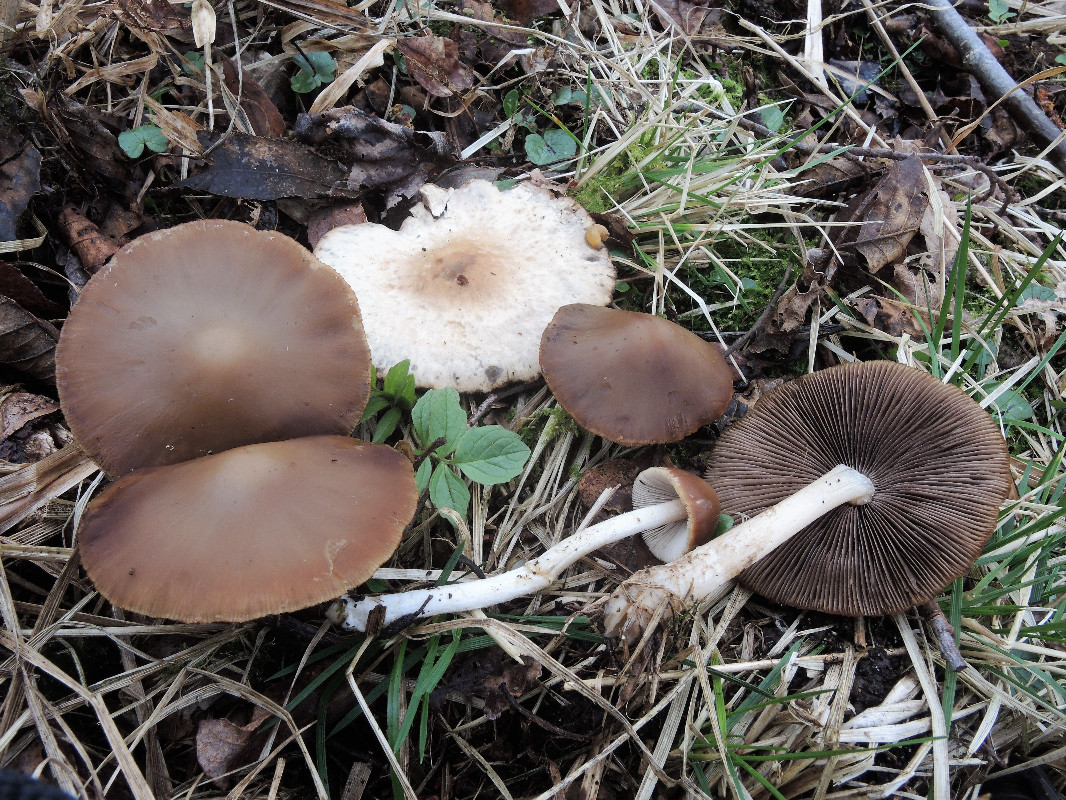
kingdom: Fungi
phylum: Basidiomycota
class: Agaricomycetes
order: Agaricales
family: Psathyrellaceae
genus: Psathyrella
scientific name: Psathyrella spadiceogrisea
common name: gråbrun mørkhat
